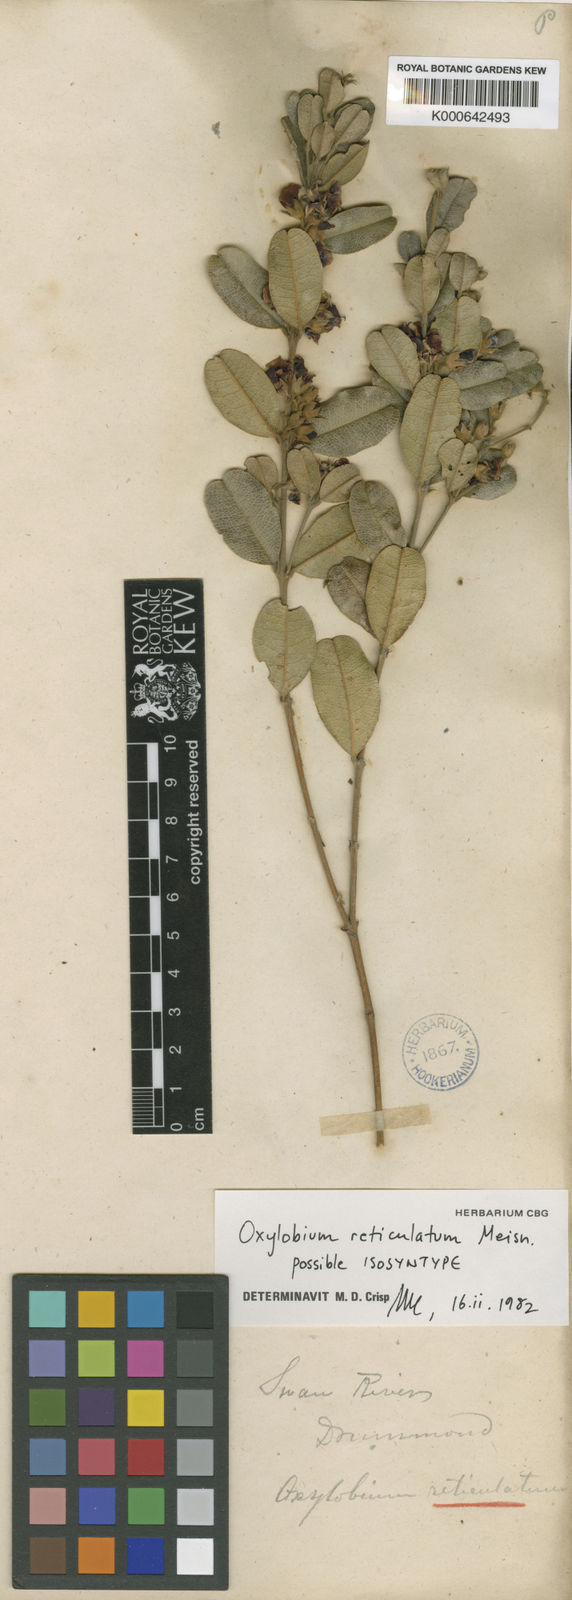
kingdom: Plantae
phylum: Tracheophyta
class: Magnoliopsida
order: Fabales
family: Fabaceae
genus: Gastrolobium
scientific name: Gastrolobium nervosum
